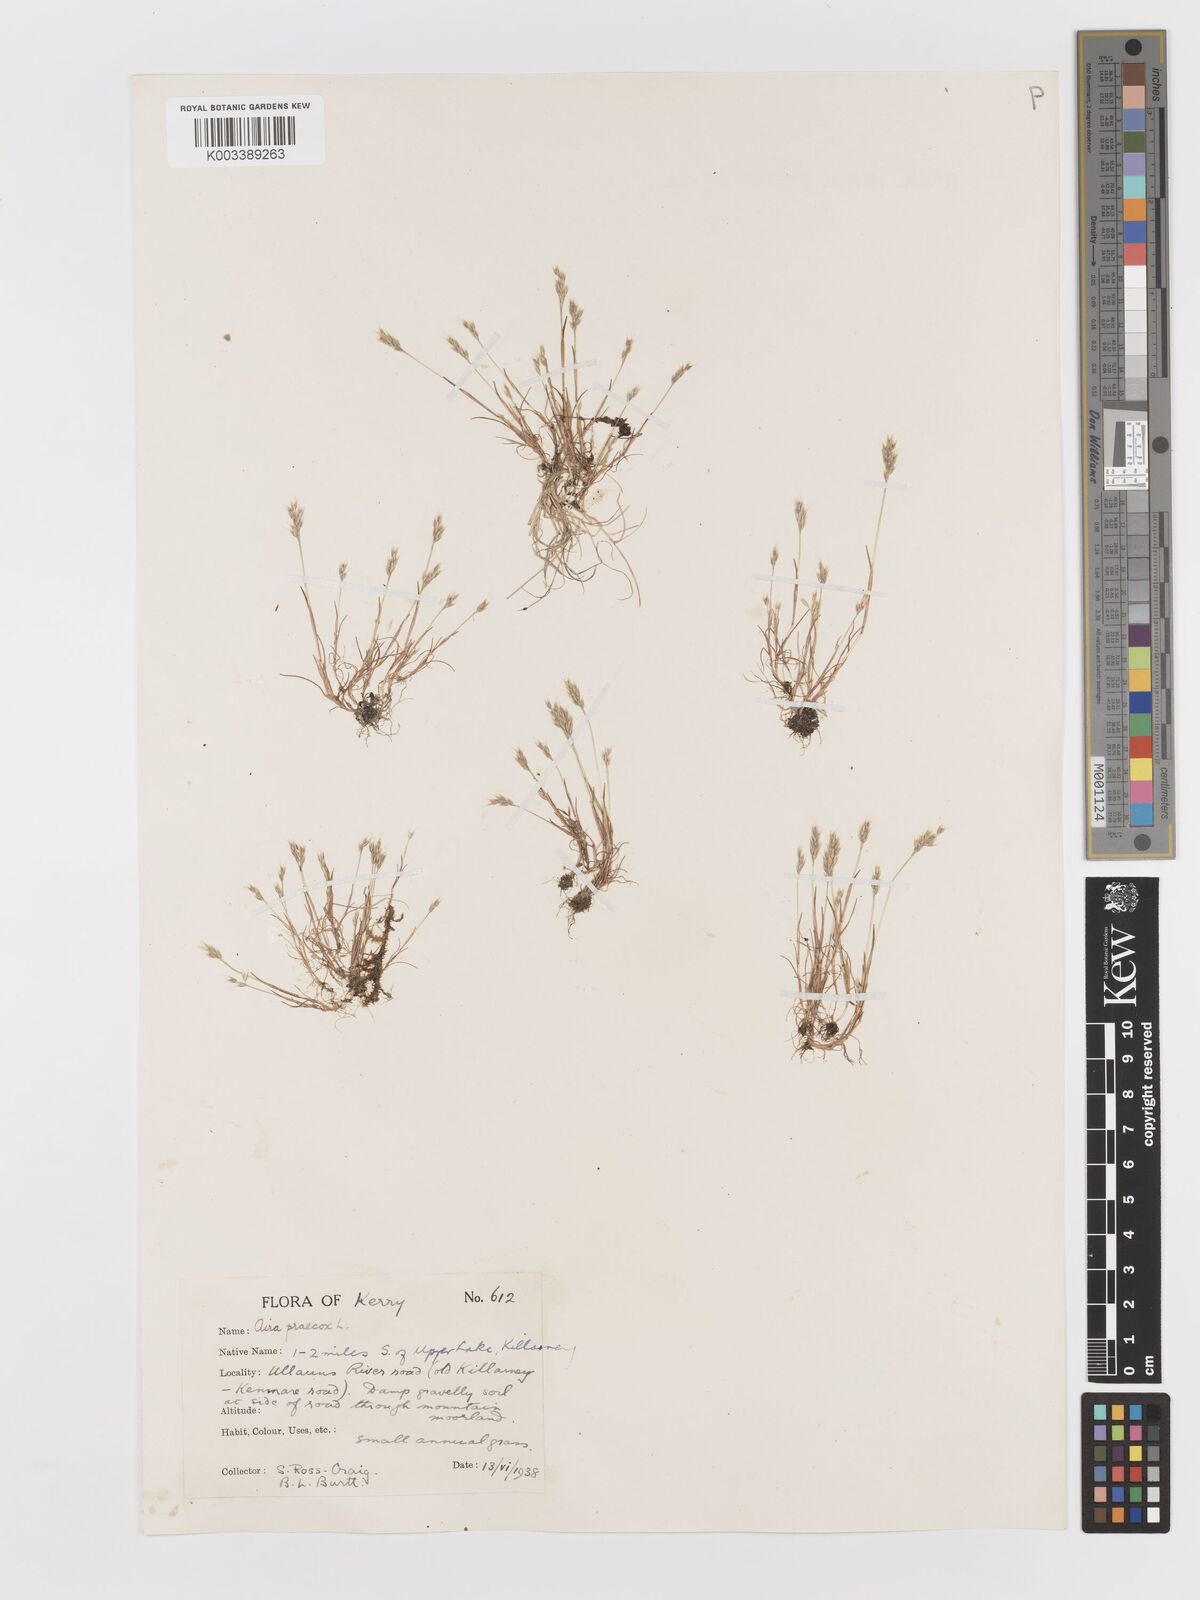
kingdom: Plantae
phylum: Tracheophyta
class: Liliopsida
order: Poales
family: Poaceae
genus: Aira
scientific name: Aira praecox
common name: Early hair-grass
